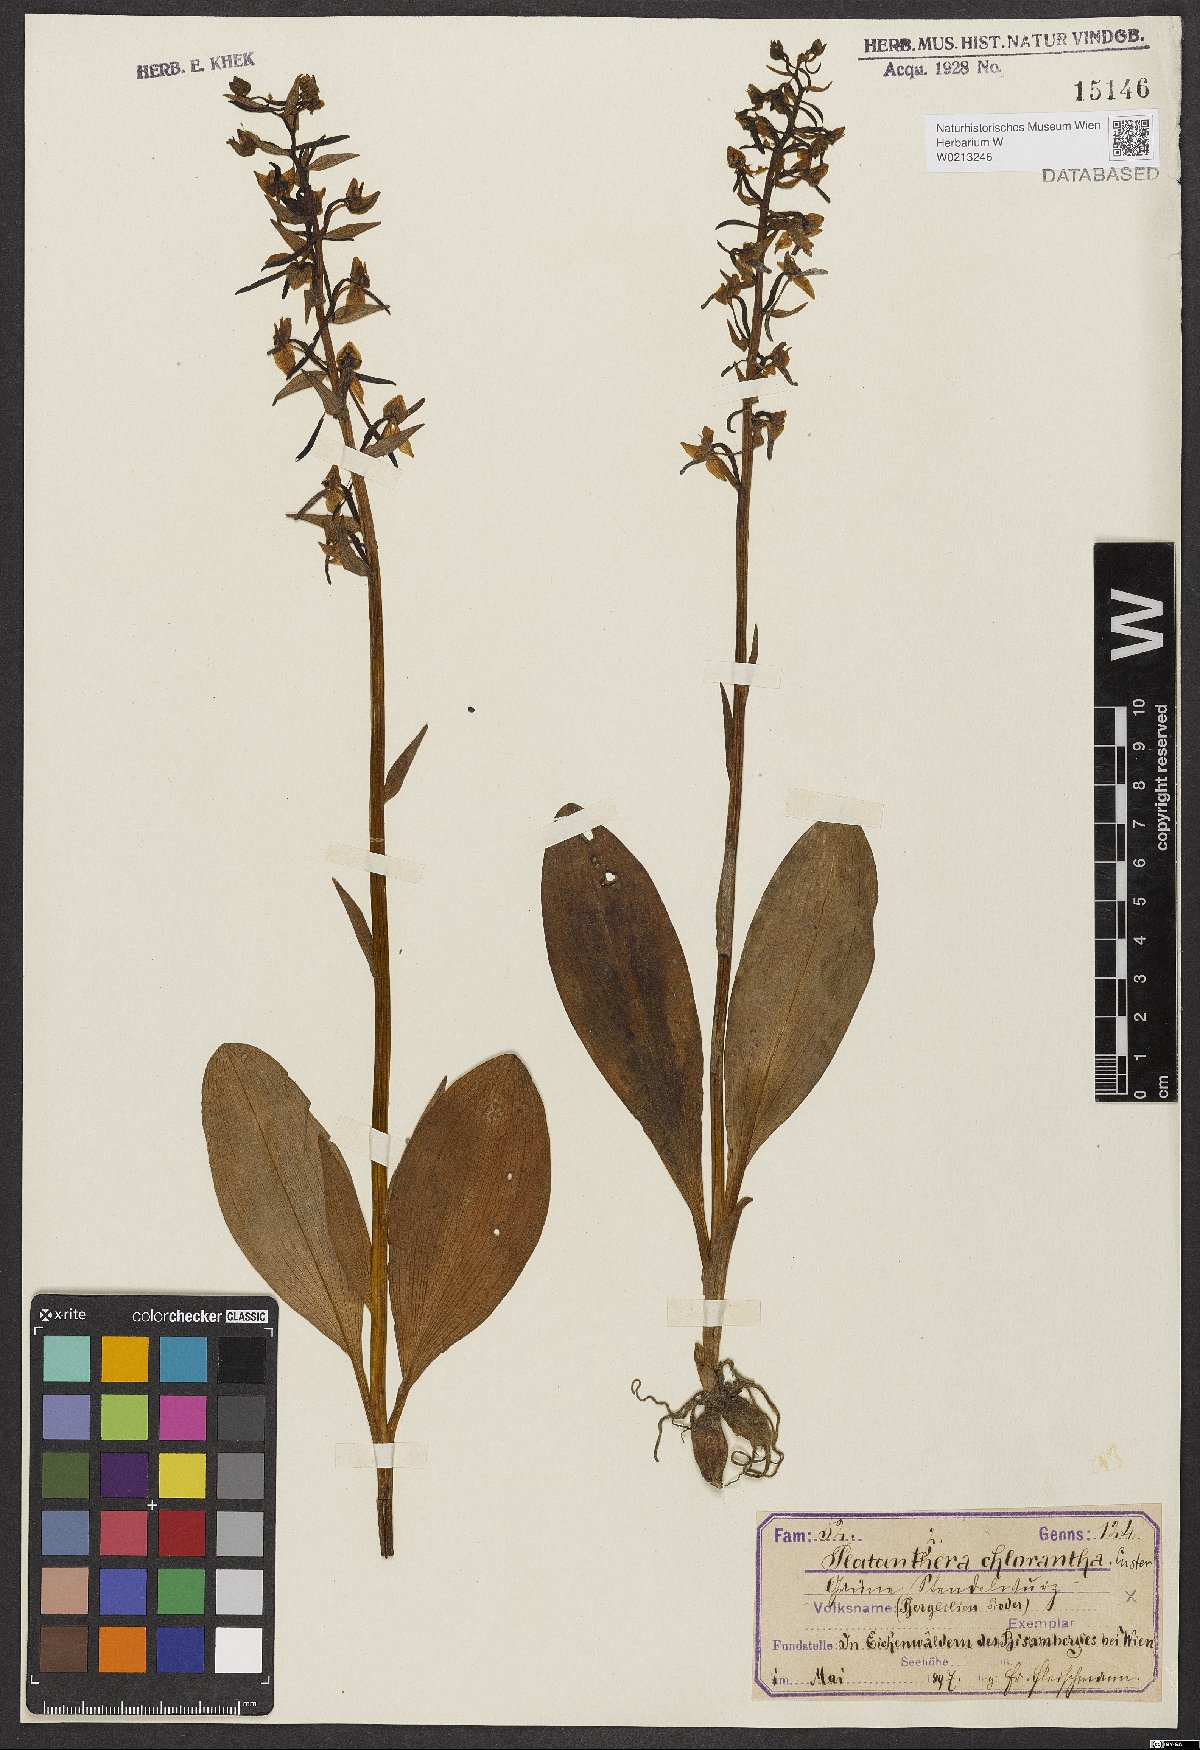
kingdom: Plantae
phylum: Tracheophyta
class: Liliopsida
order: Asparagales
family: Orchidaceae
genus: Platanthera
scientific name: Platanthera chlorantha
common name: Greater butterfly-orchid
